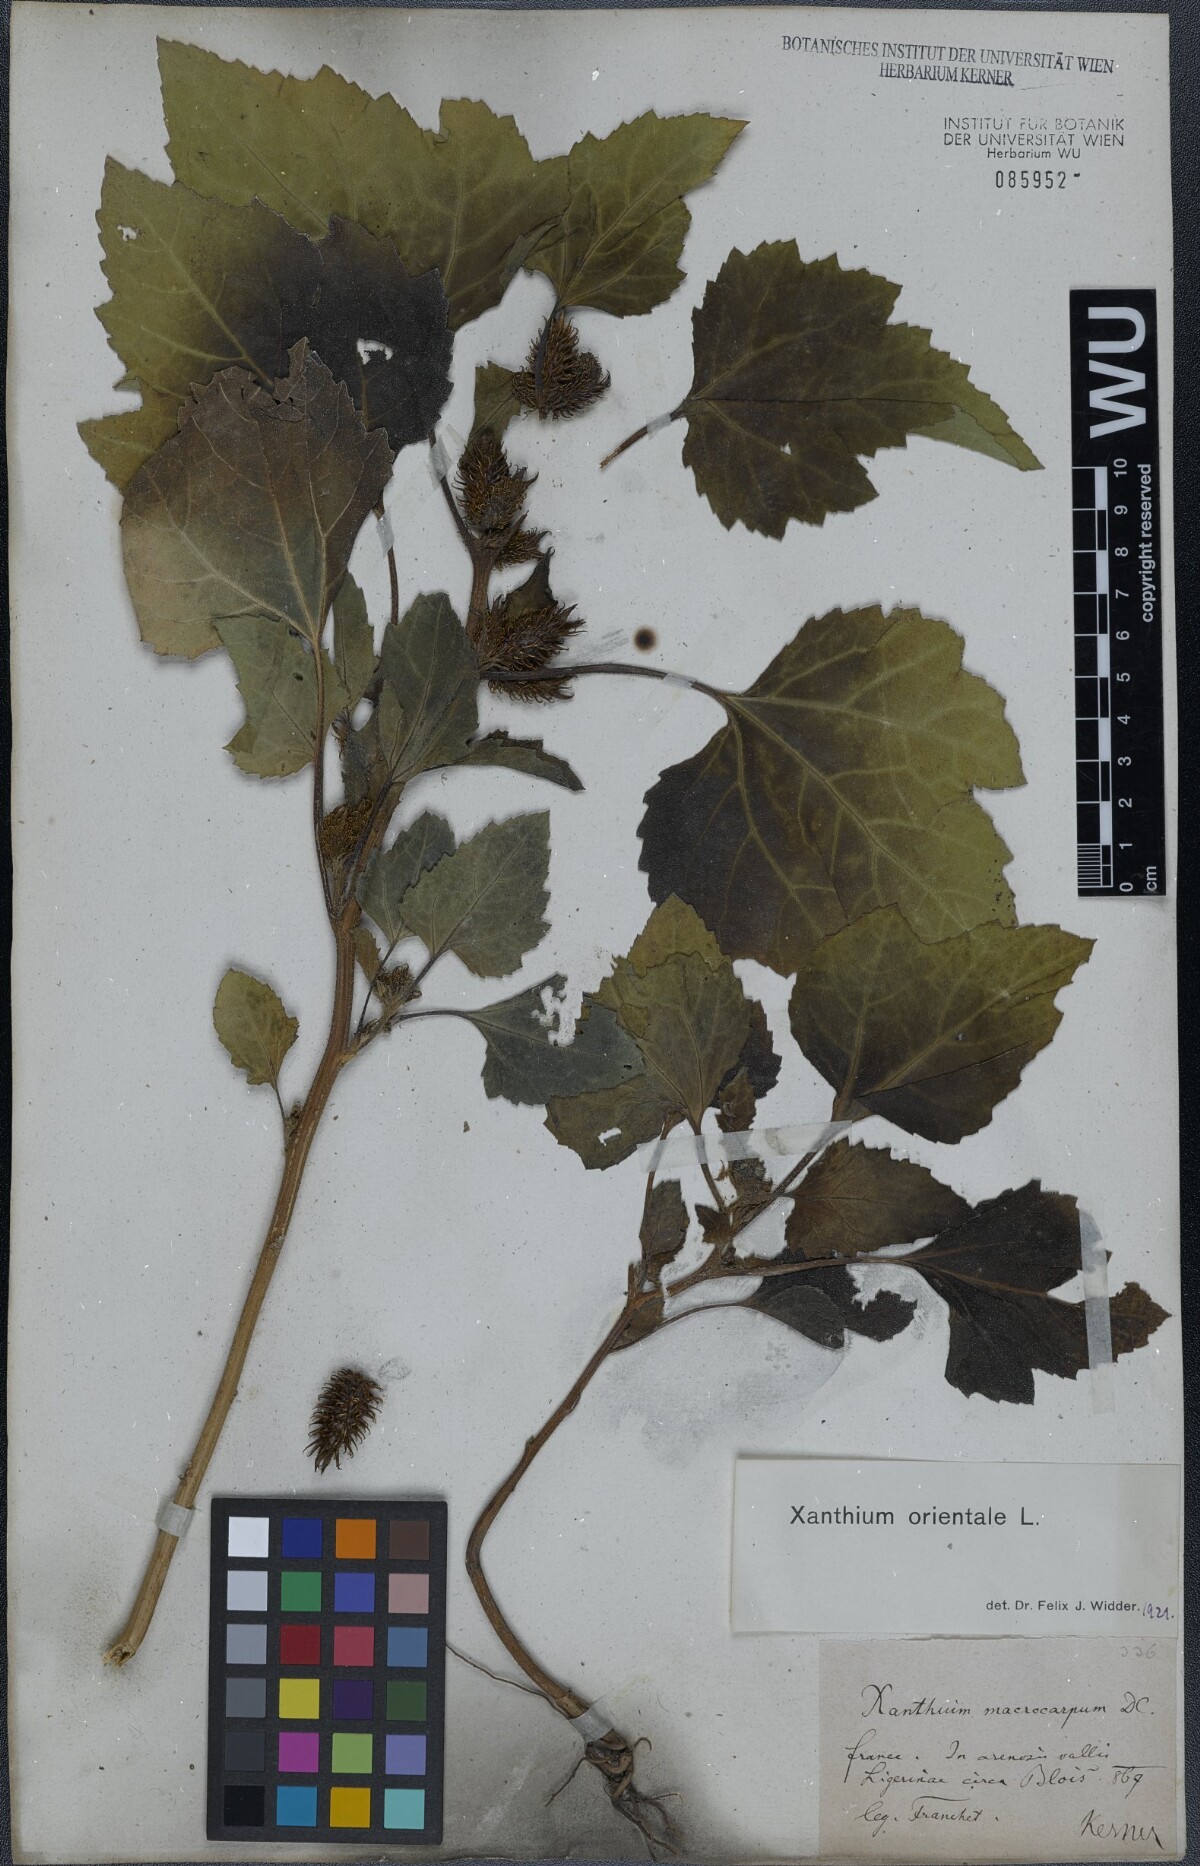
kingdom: Plantae
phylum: Tracheophyta
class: Magnoliopsida
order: Asterales
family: Asteraceae
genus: Xanthium
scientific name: Xanthium orientale
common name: Californian burr
